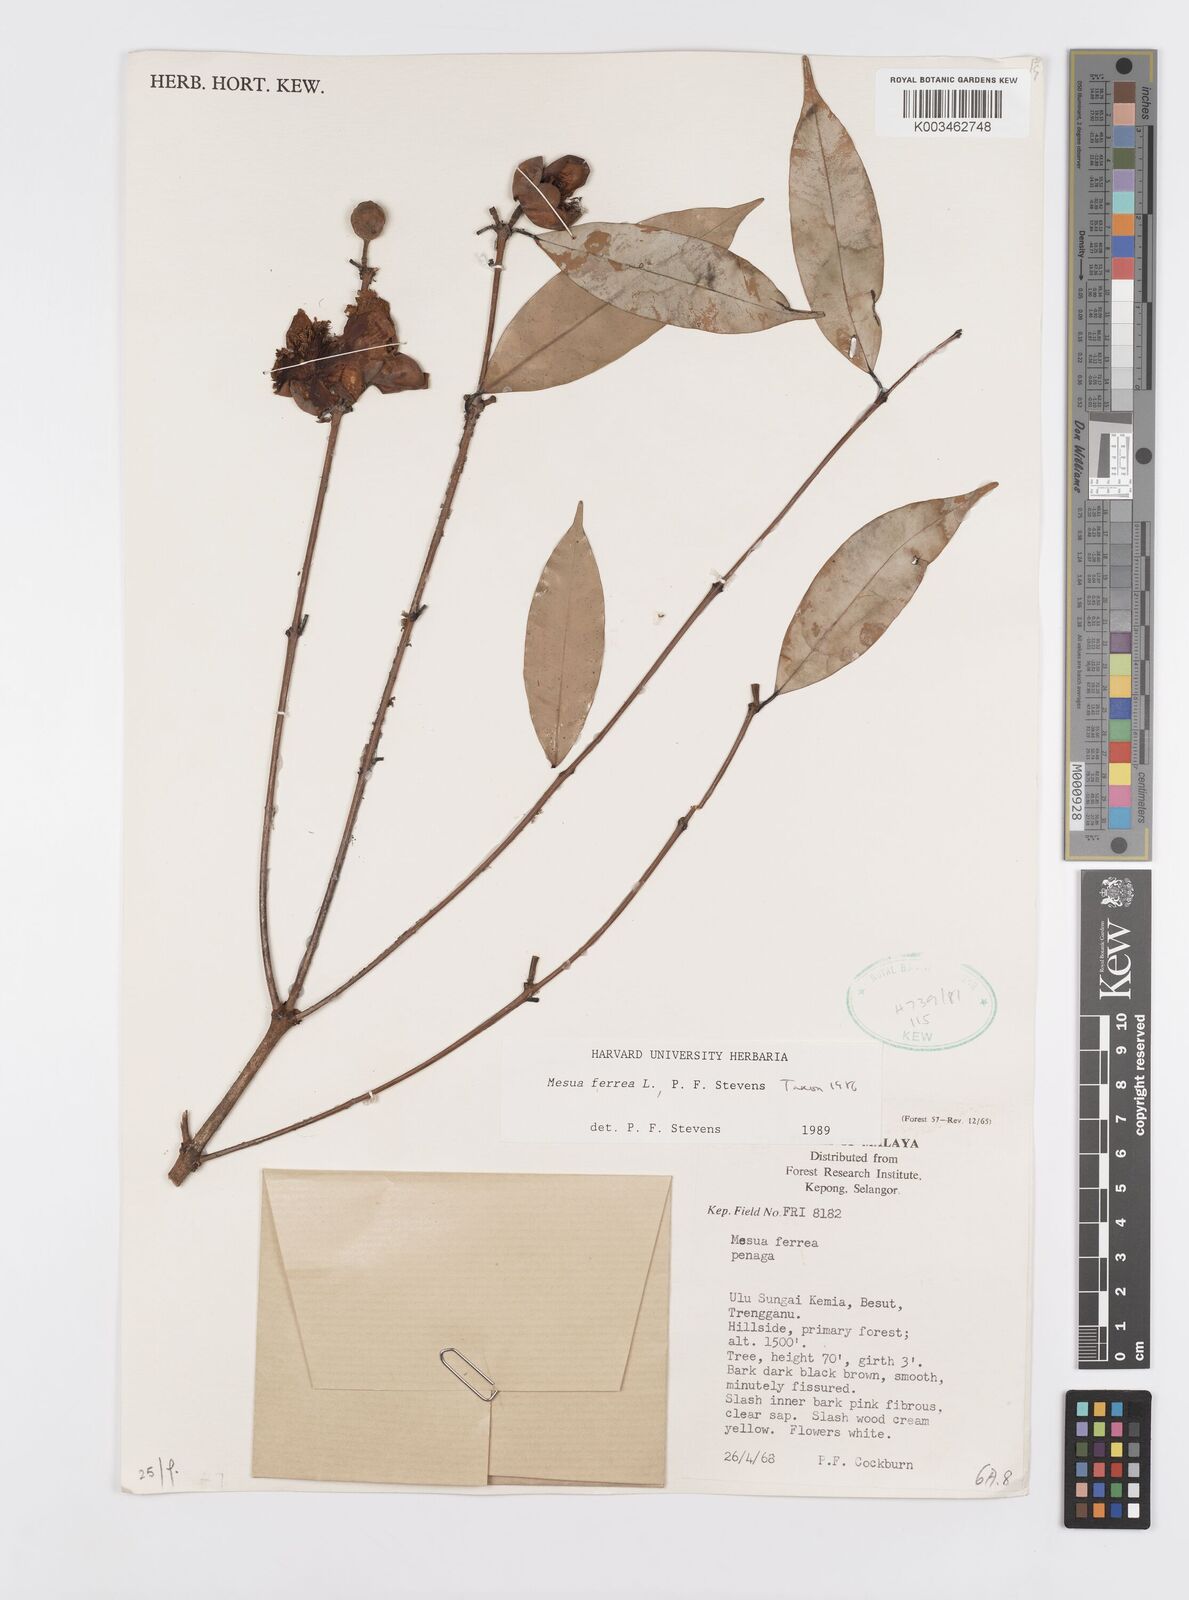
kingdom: Plantae
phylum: Tracheophyta
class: Magnoliopsida
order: Malpighiales
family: Calophyllaceae
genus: Mesua
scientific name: Mesua ferrea
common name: Mesua
